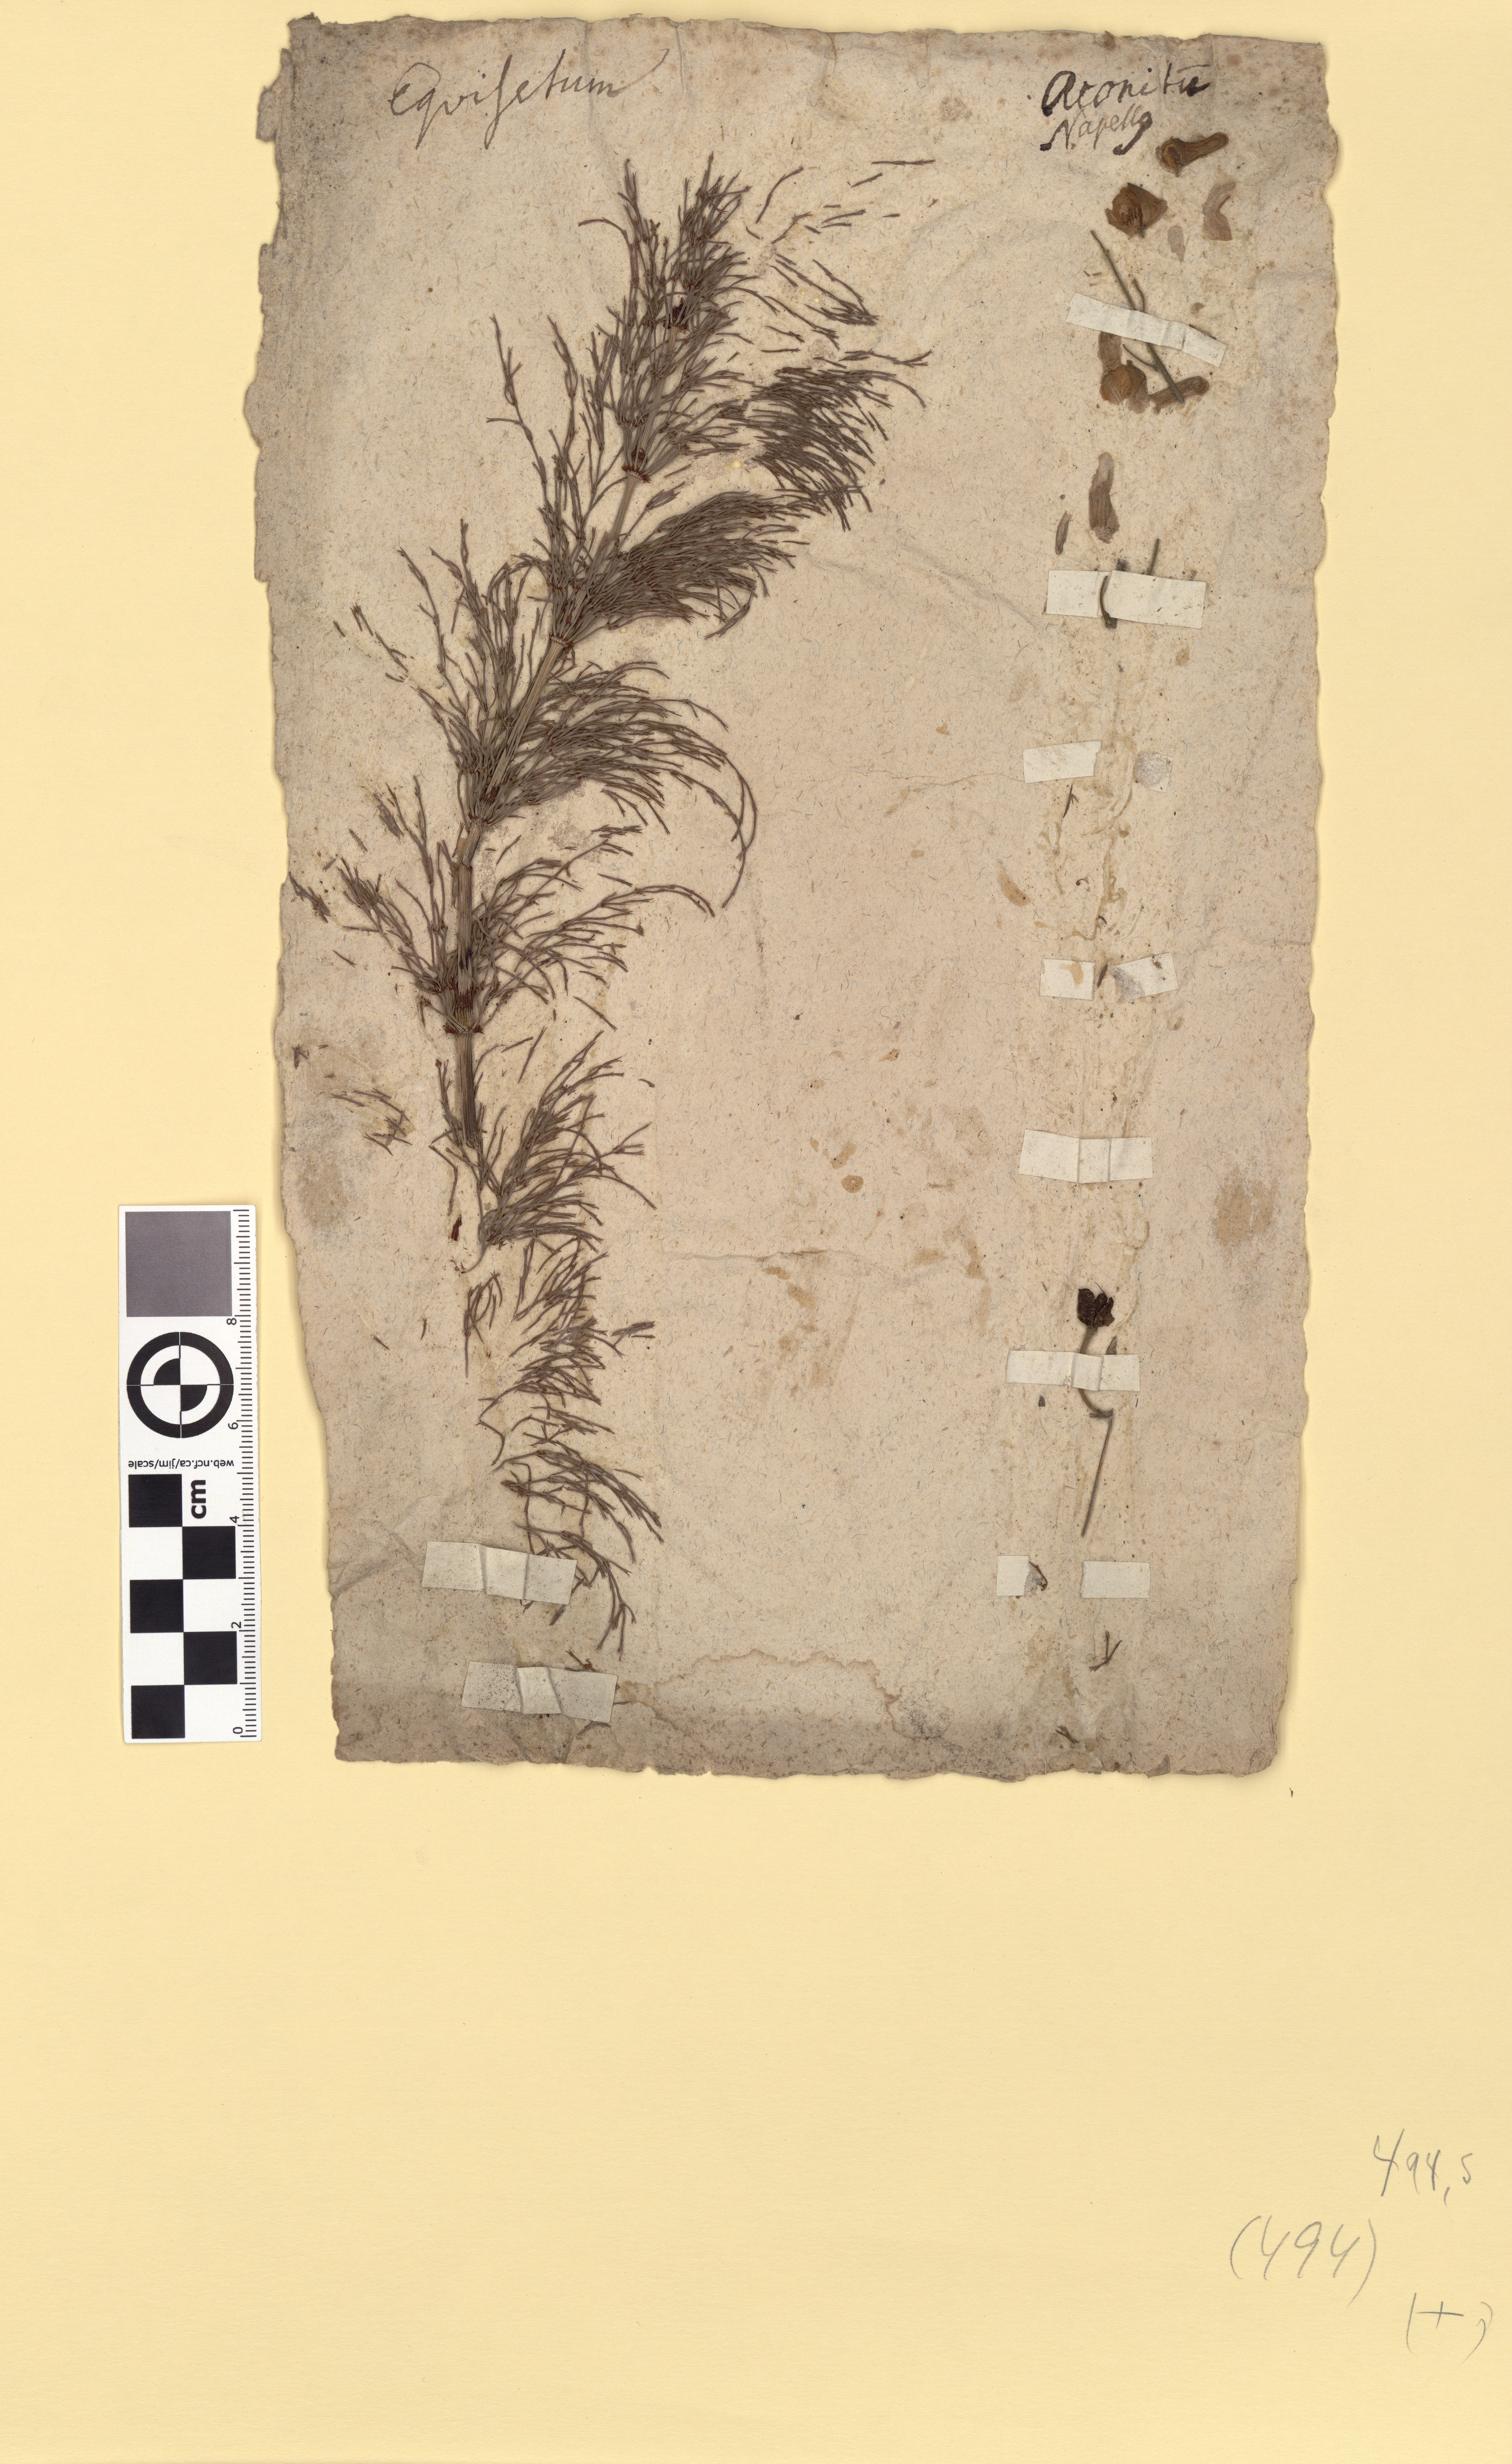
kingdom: Plantae
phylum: Tracheophyta
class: Polypodiopsida
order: Equisetales
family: Equisetaceae
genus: Equisetum
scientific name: Equisetum sylvaticum
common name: Wood horsetail
